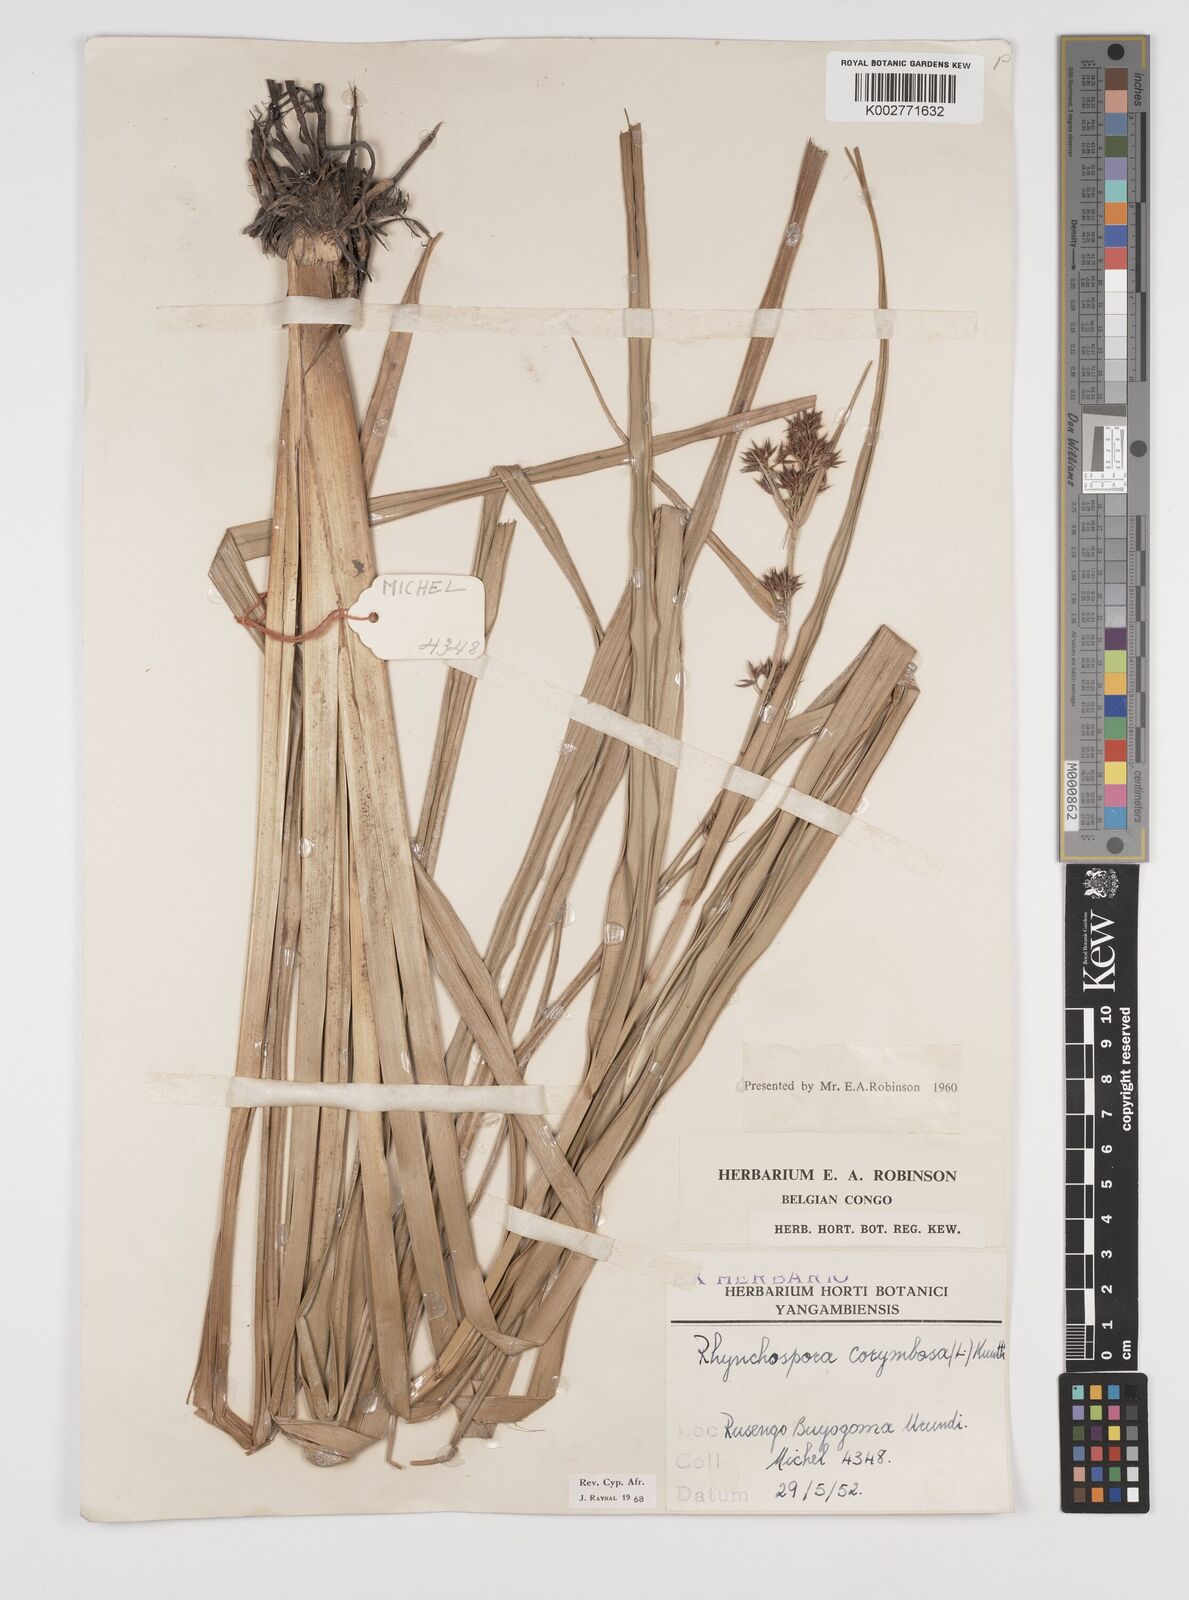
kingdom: Plantae
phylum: Tracheophyta
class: Liliopsida
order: Poales
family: Cyperaceae
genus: Rhynchospora
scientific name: Rhynchospora corymbosa
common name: Golden beak sedge
